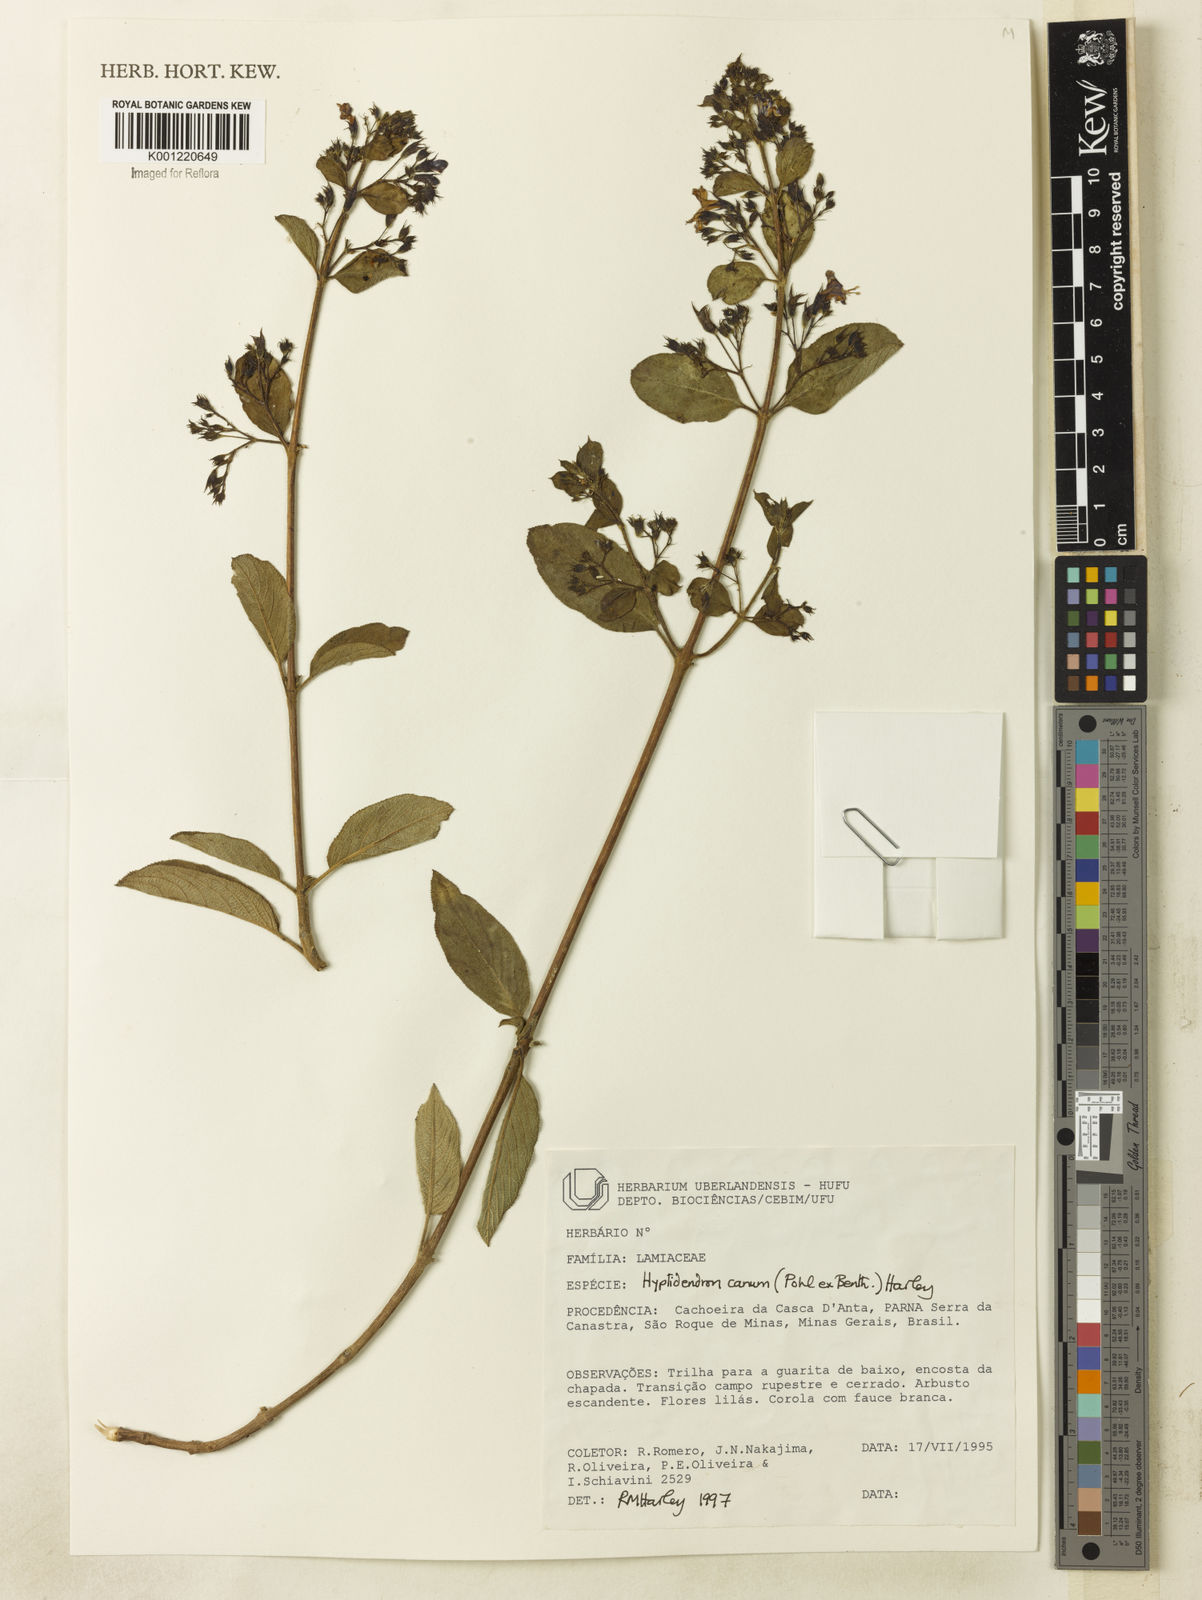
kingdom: Plantae
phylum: Tracheophyta
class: Magnoliopsida
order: Lamiales
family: Lamiaceae
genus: Hyptidendron
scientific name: Hyptidendron canum
